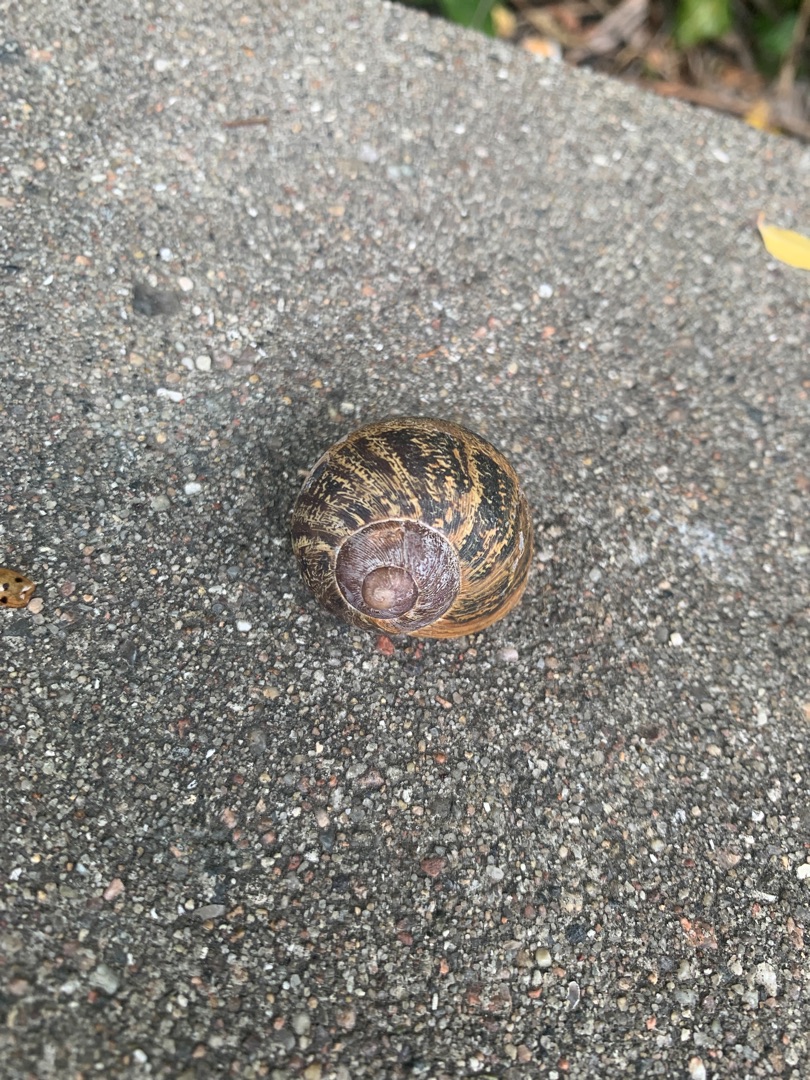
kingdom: Animalia
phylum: Mollusca
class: Gastropoda
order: Stylommatophora
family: Helicidae
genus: Cornu
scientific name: Cornu aspersum
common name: Plettet voldsnegl
